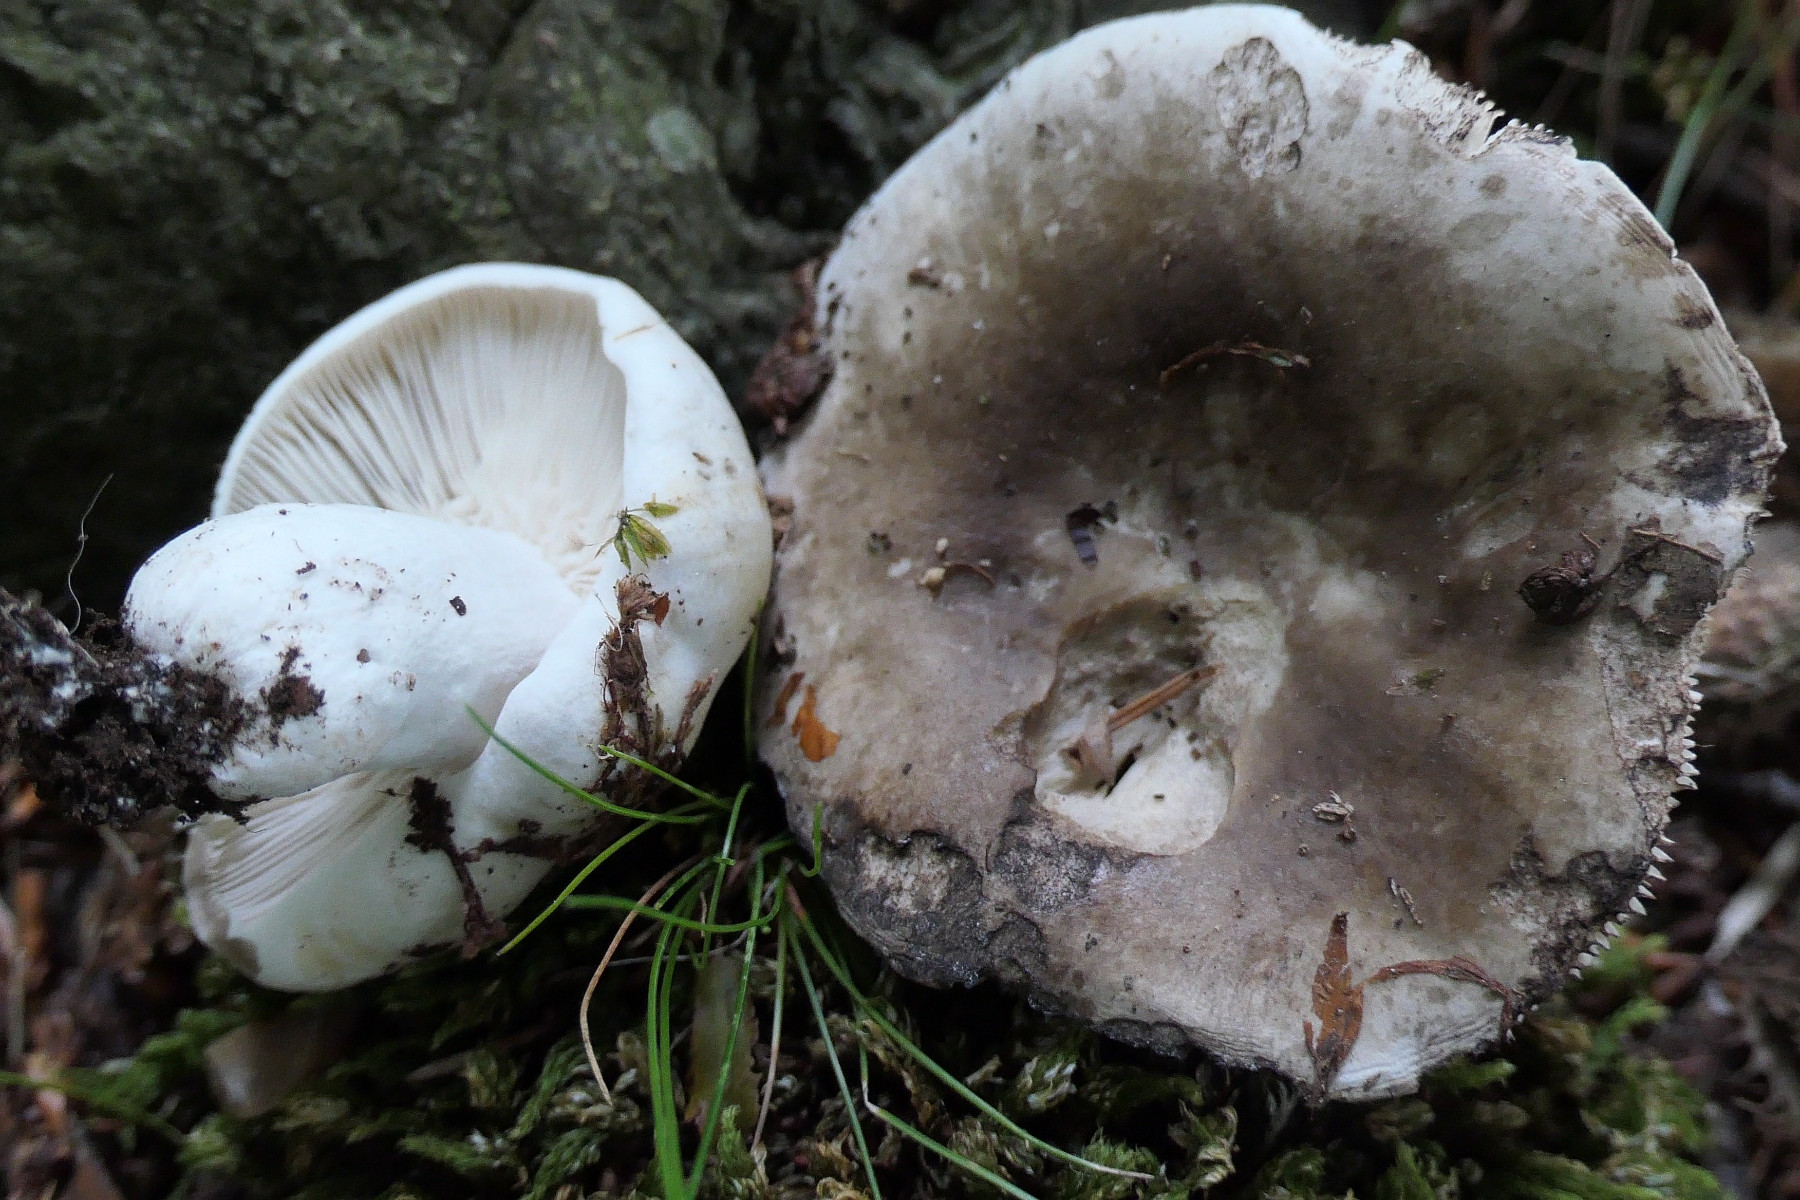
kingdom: Fungi
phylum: Basidiomycota
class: Agaricomycetes
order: Russulales
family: Russulaceae
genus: Russula
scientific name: Russula acrifolia
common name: skarpbladet skørhat
